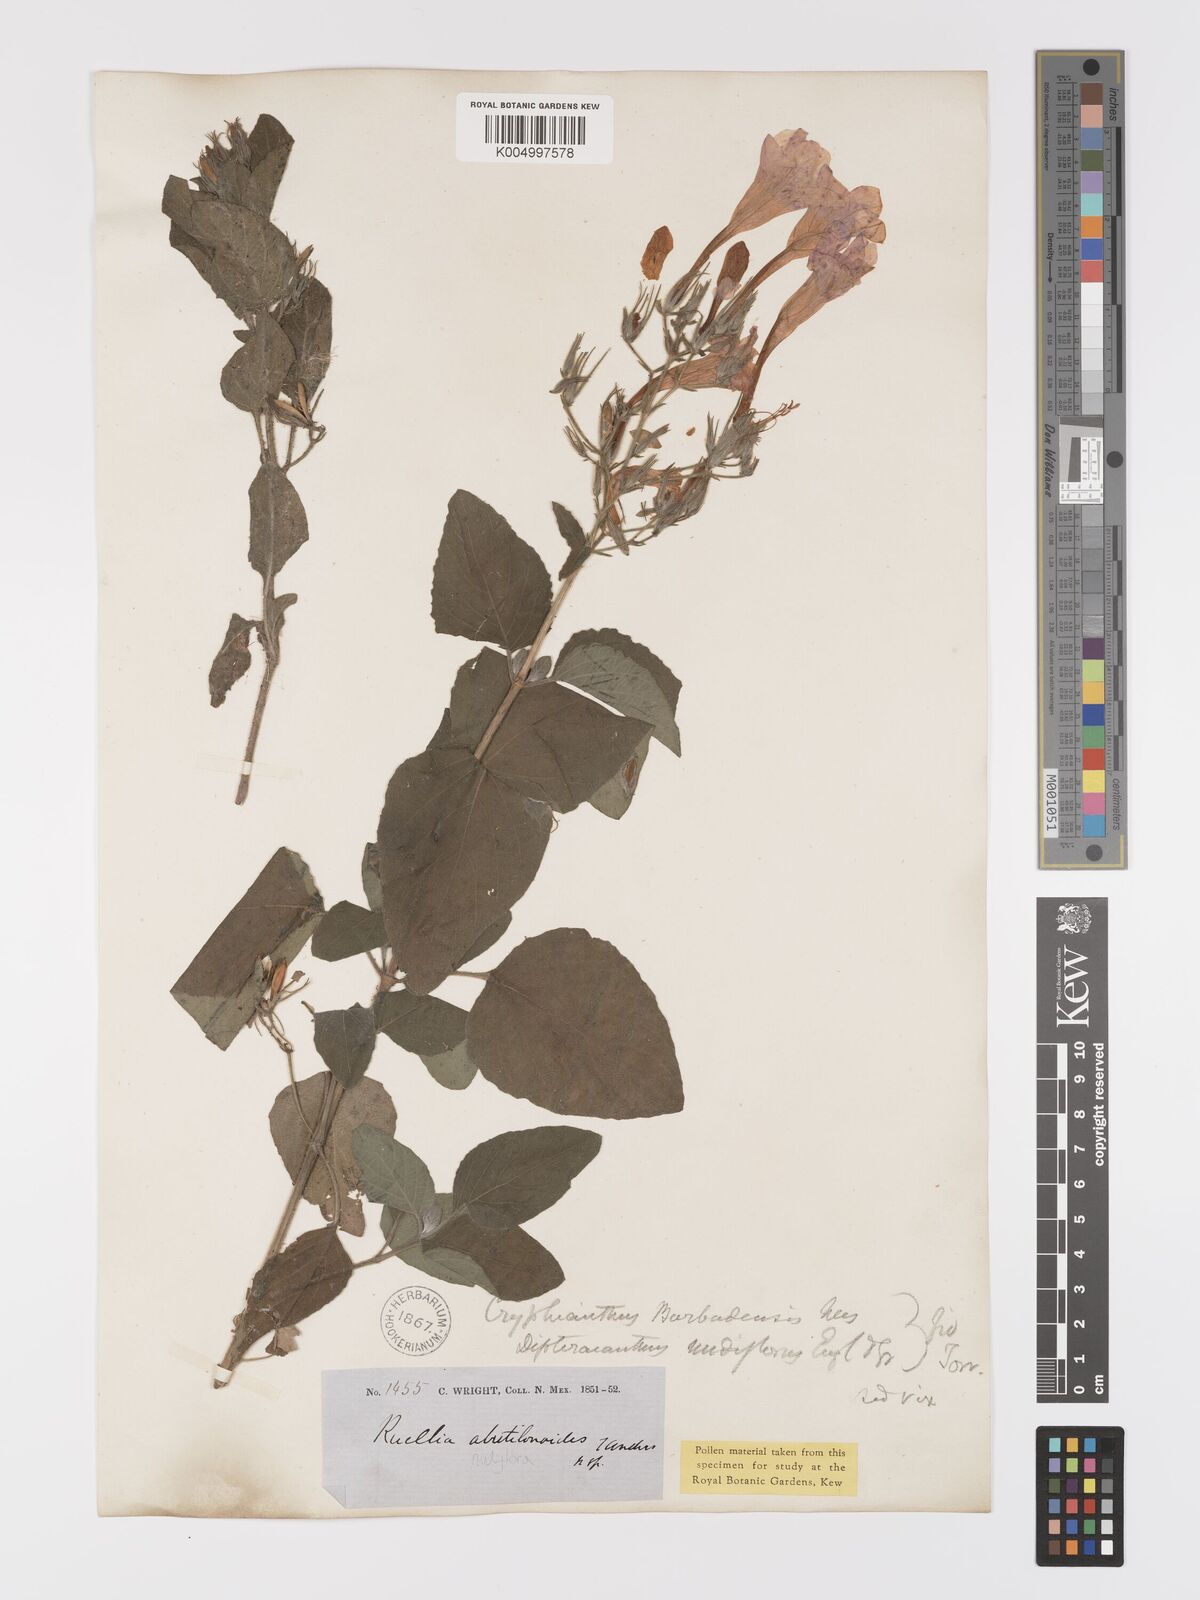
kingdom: Plantae
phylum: Tracheophyta
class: Magnoliopsida
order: Lamiales
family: Acanthaceae
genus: Ruellia
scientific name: Ruellia tuberosa
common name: Devil's bit
